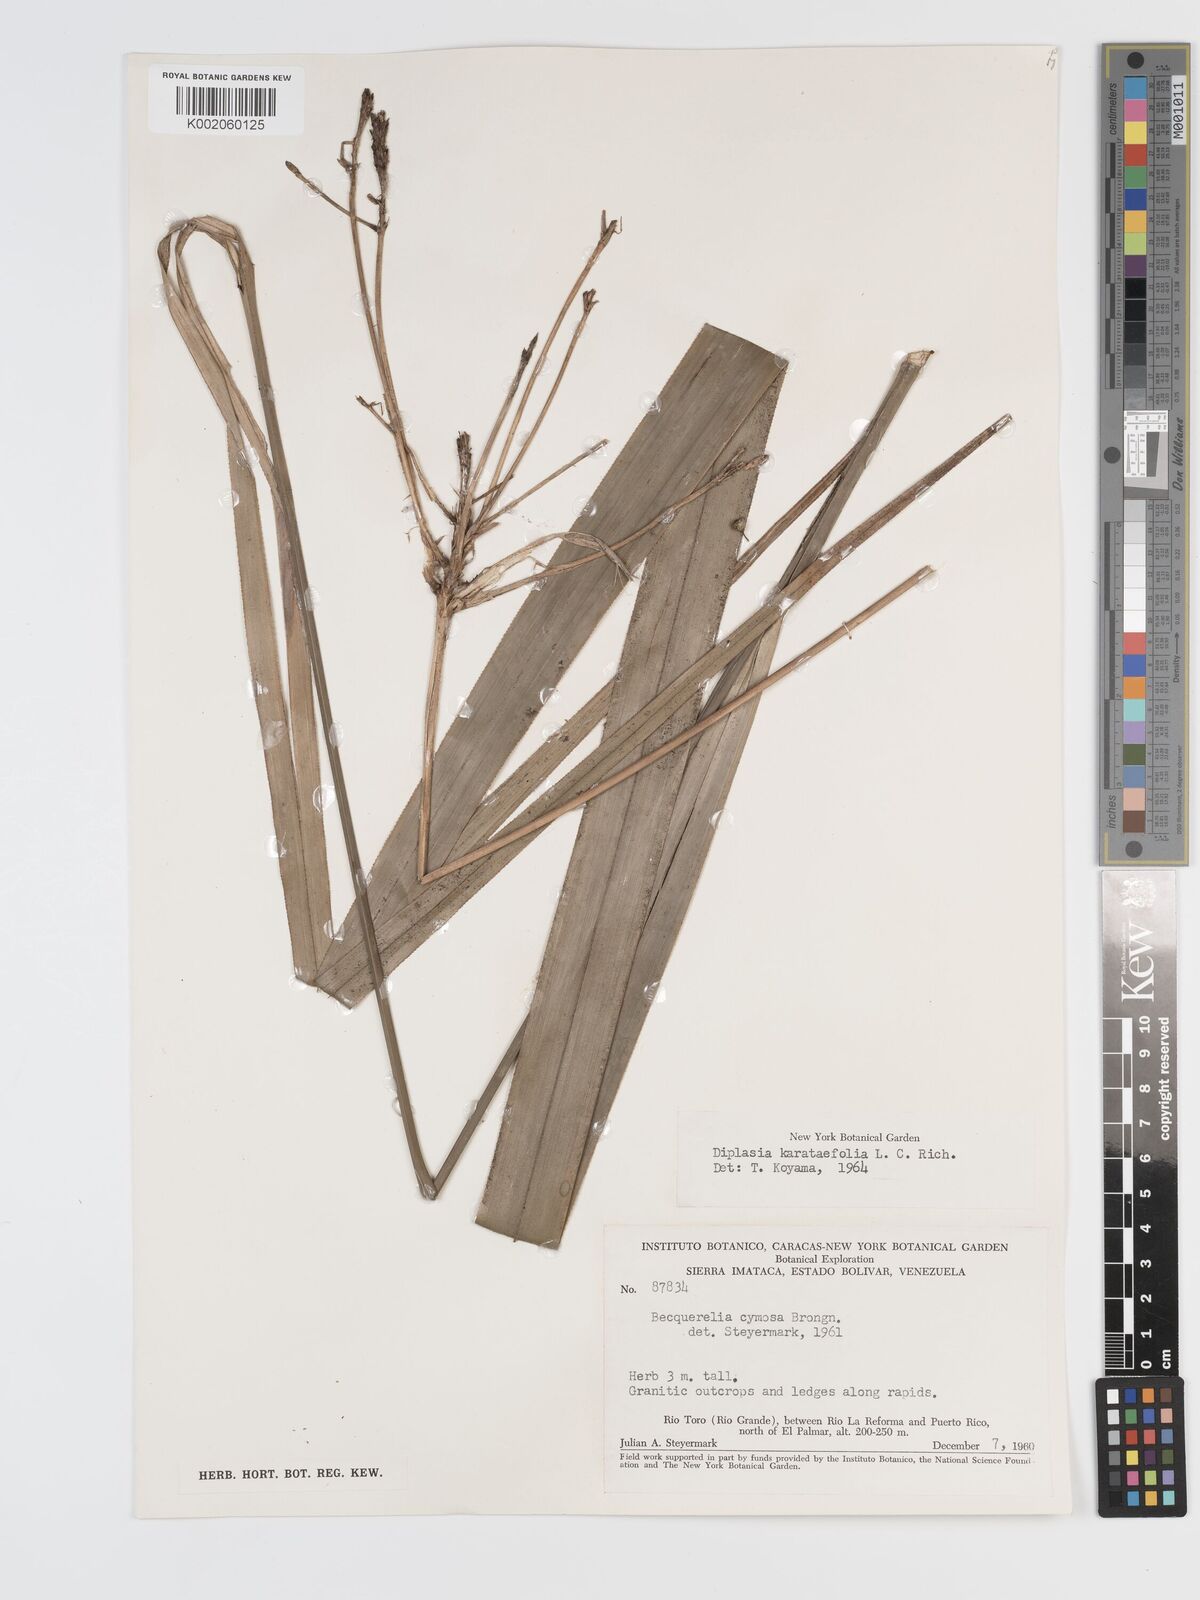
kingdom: Plantae
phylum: Tracheophyta
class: Liliopsida
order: Poales
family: Cyperaceae
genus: Diplasia
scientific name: Diplasia karatifolia
